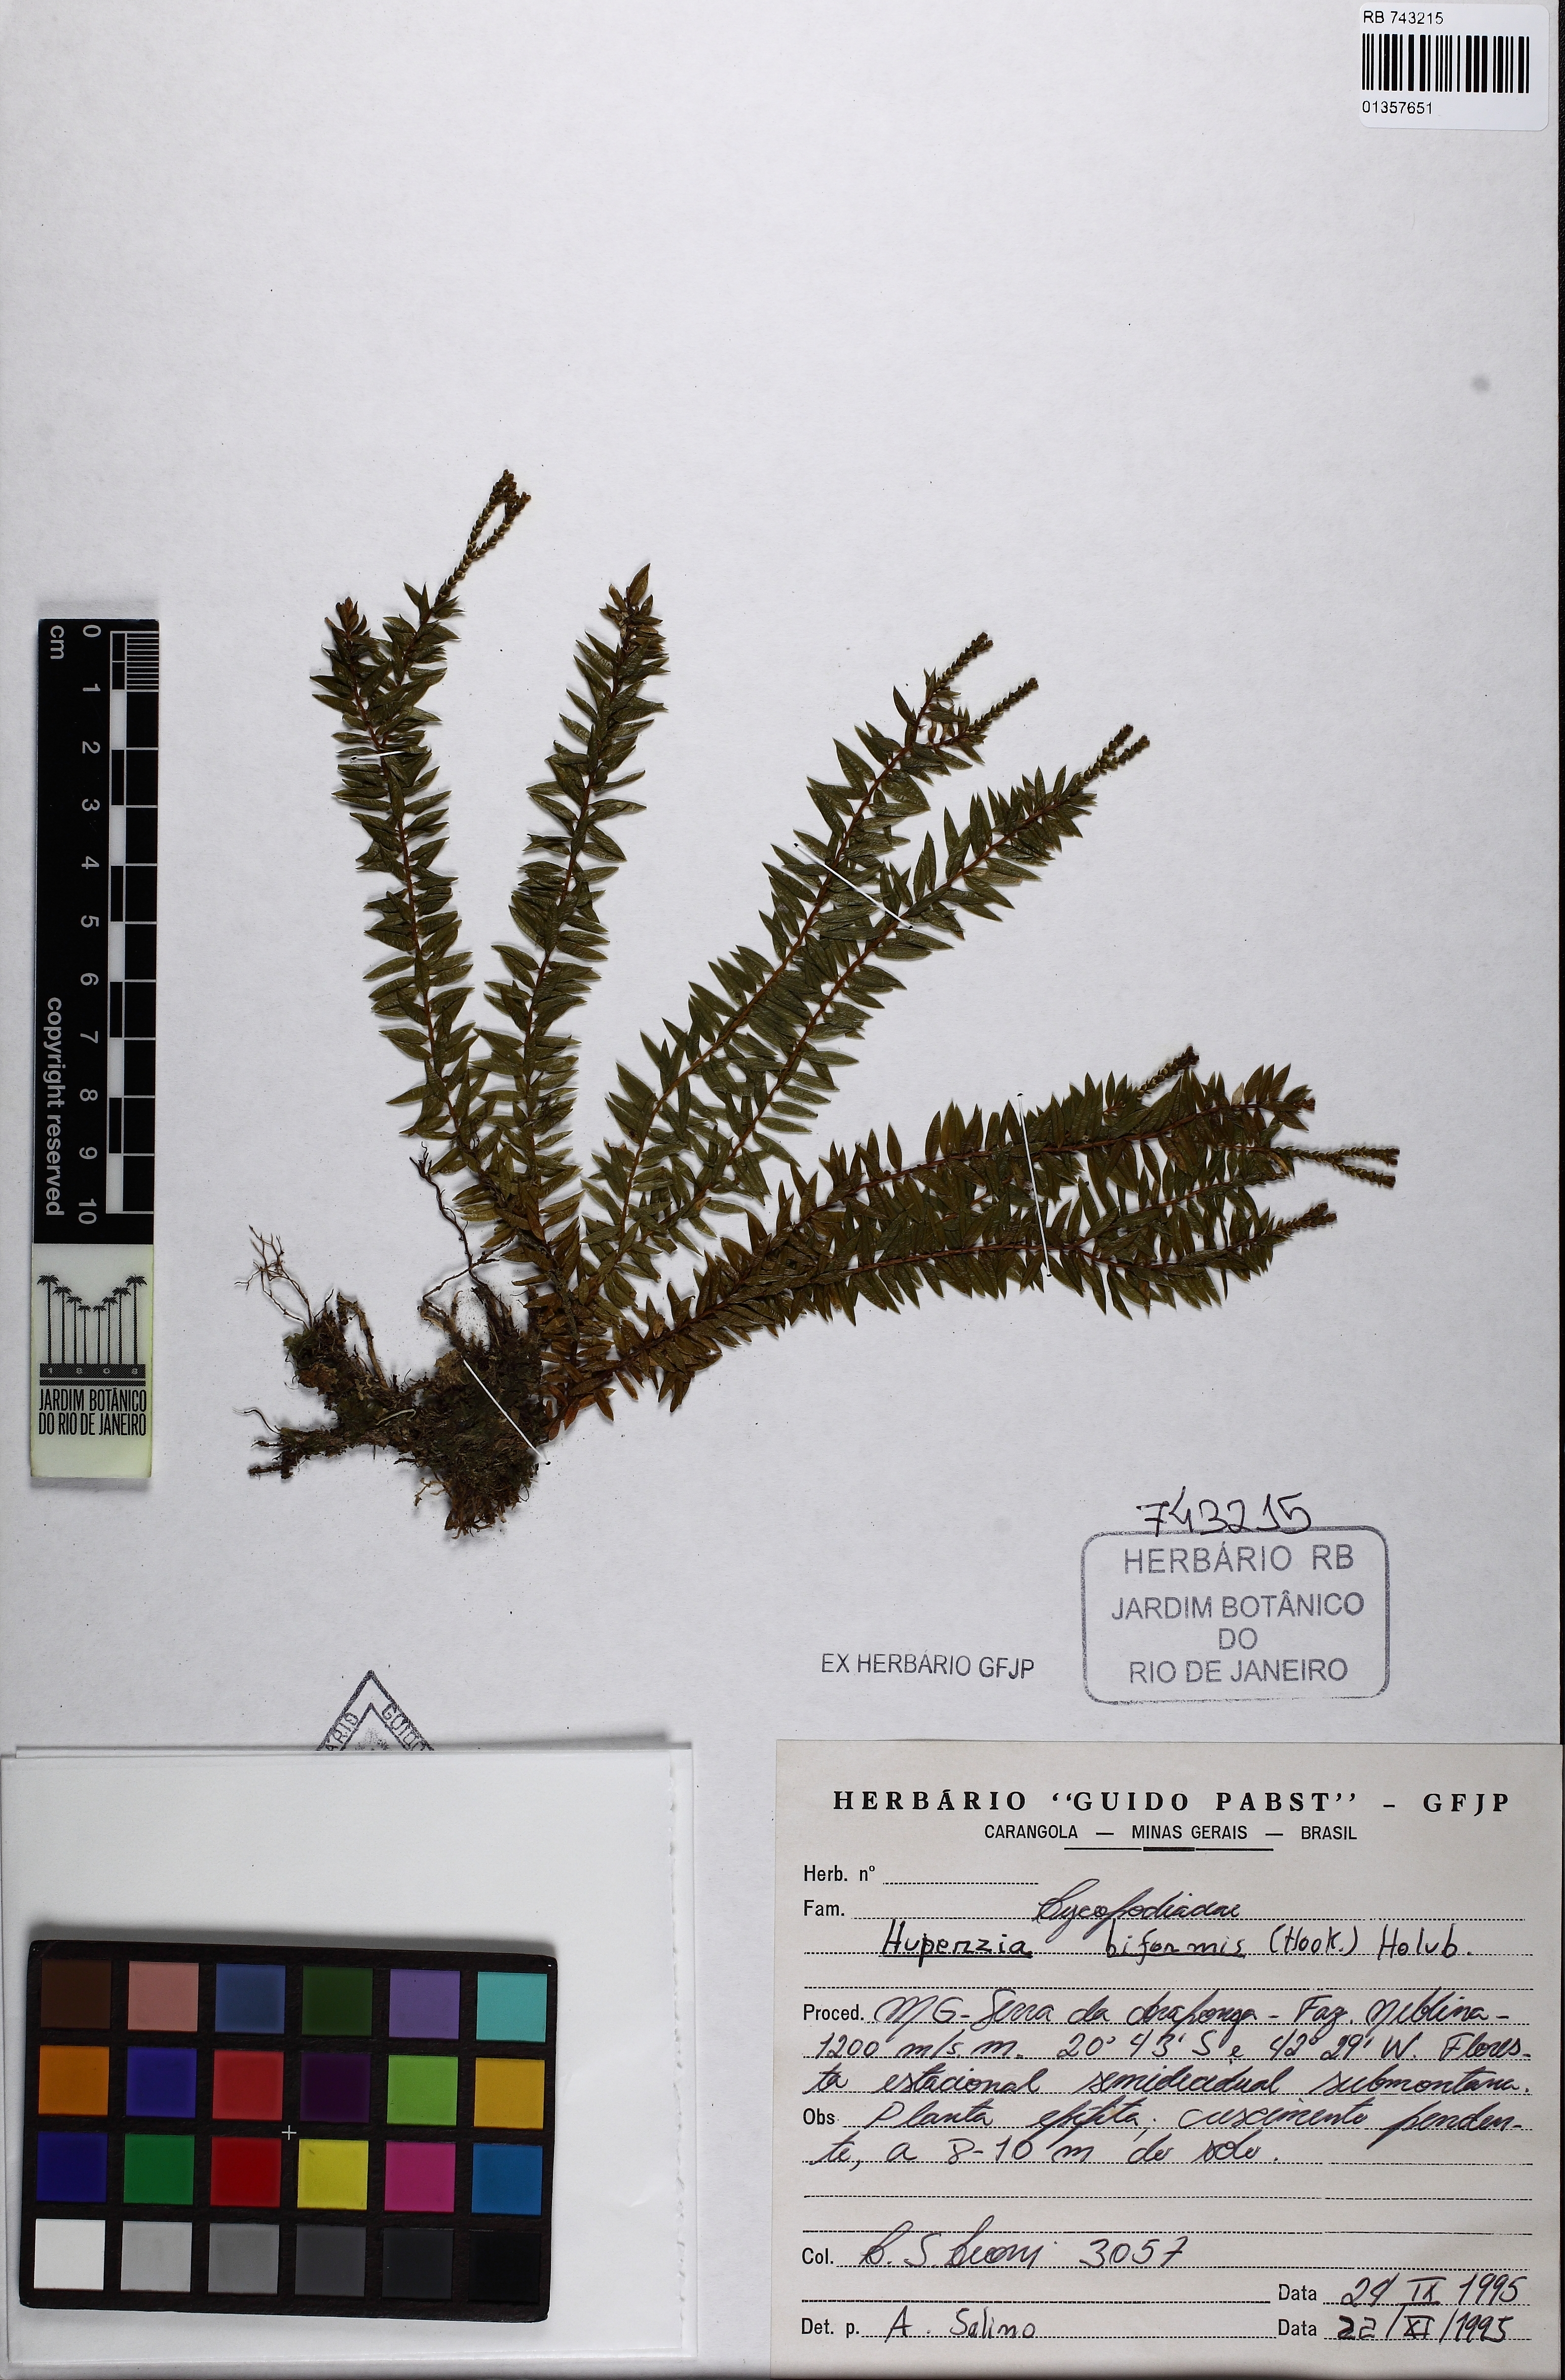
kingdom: Plantae
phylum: Tracheophyta
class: Lycopodiopsida
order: Lycopodiales
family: Lycopodiaceae
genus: Phlegmariurus
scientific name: Phlegmariurus biformis
